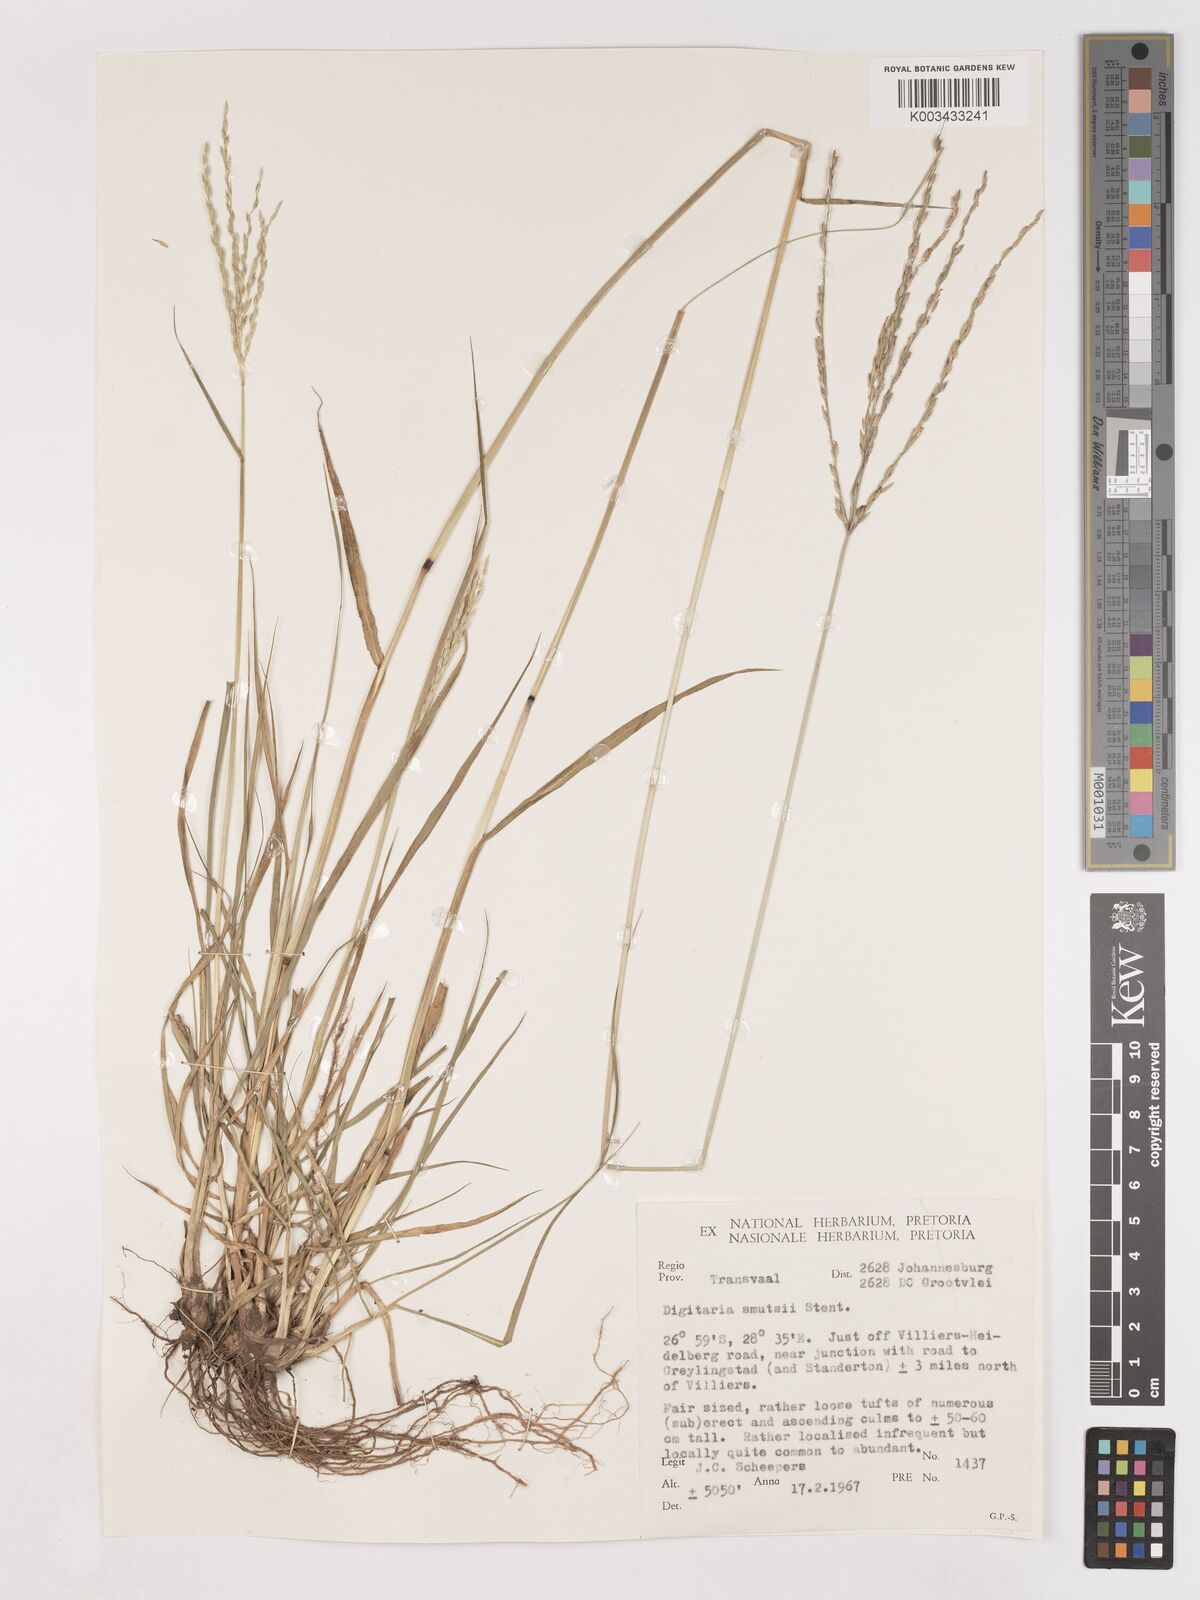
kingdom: Plantae
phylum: Tracheophyta
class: Liliopsida
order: Poales
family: Poaceae
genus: Digitaria
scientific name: Digitaria eriantha
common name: Digitgrass
